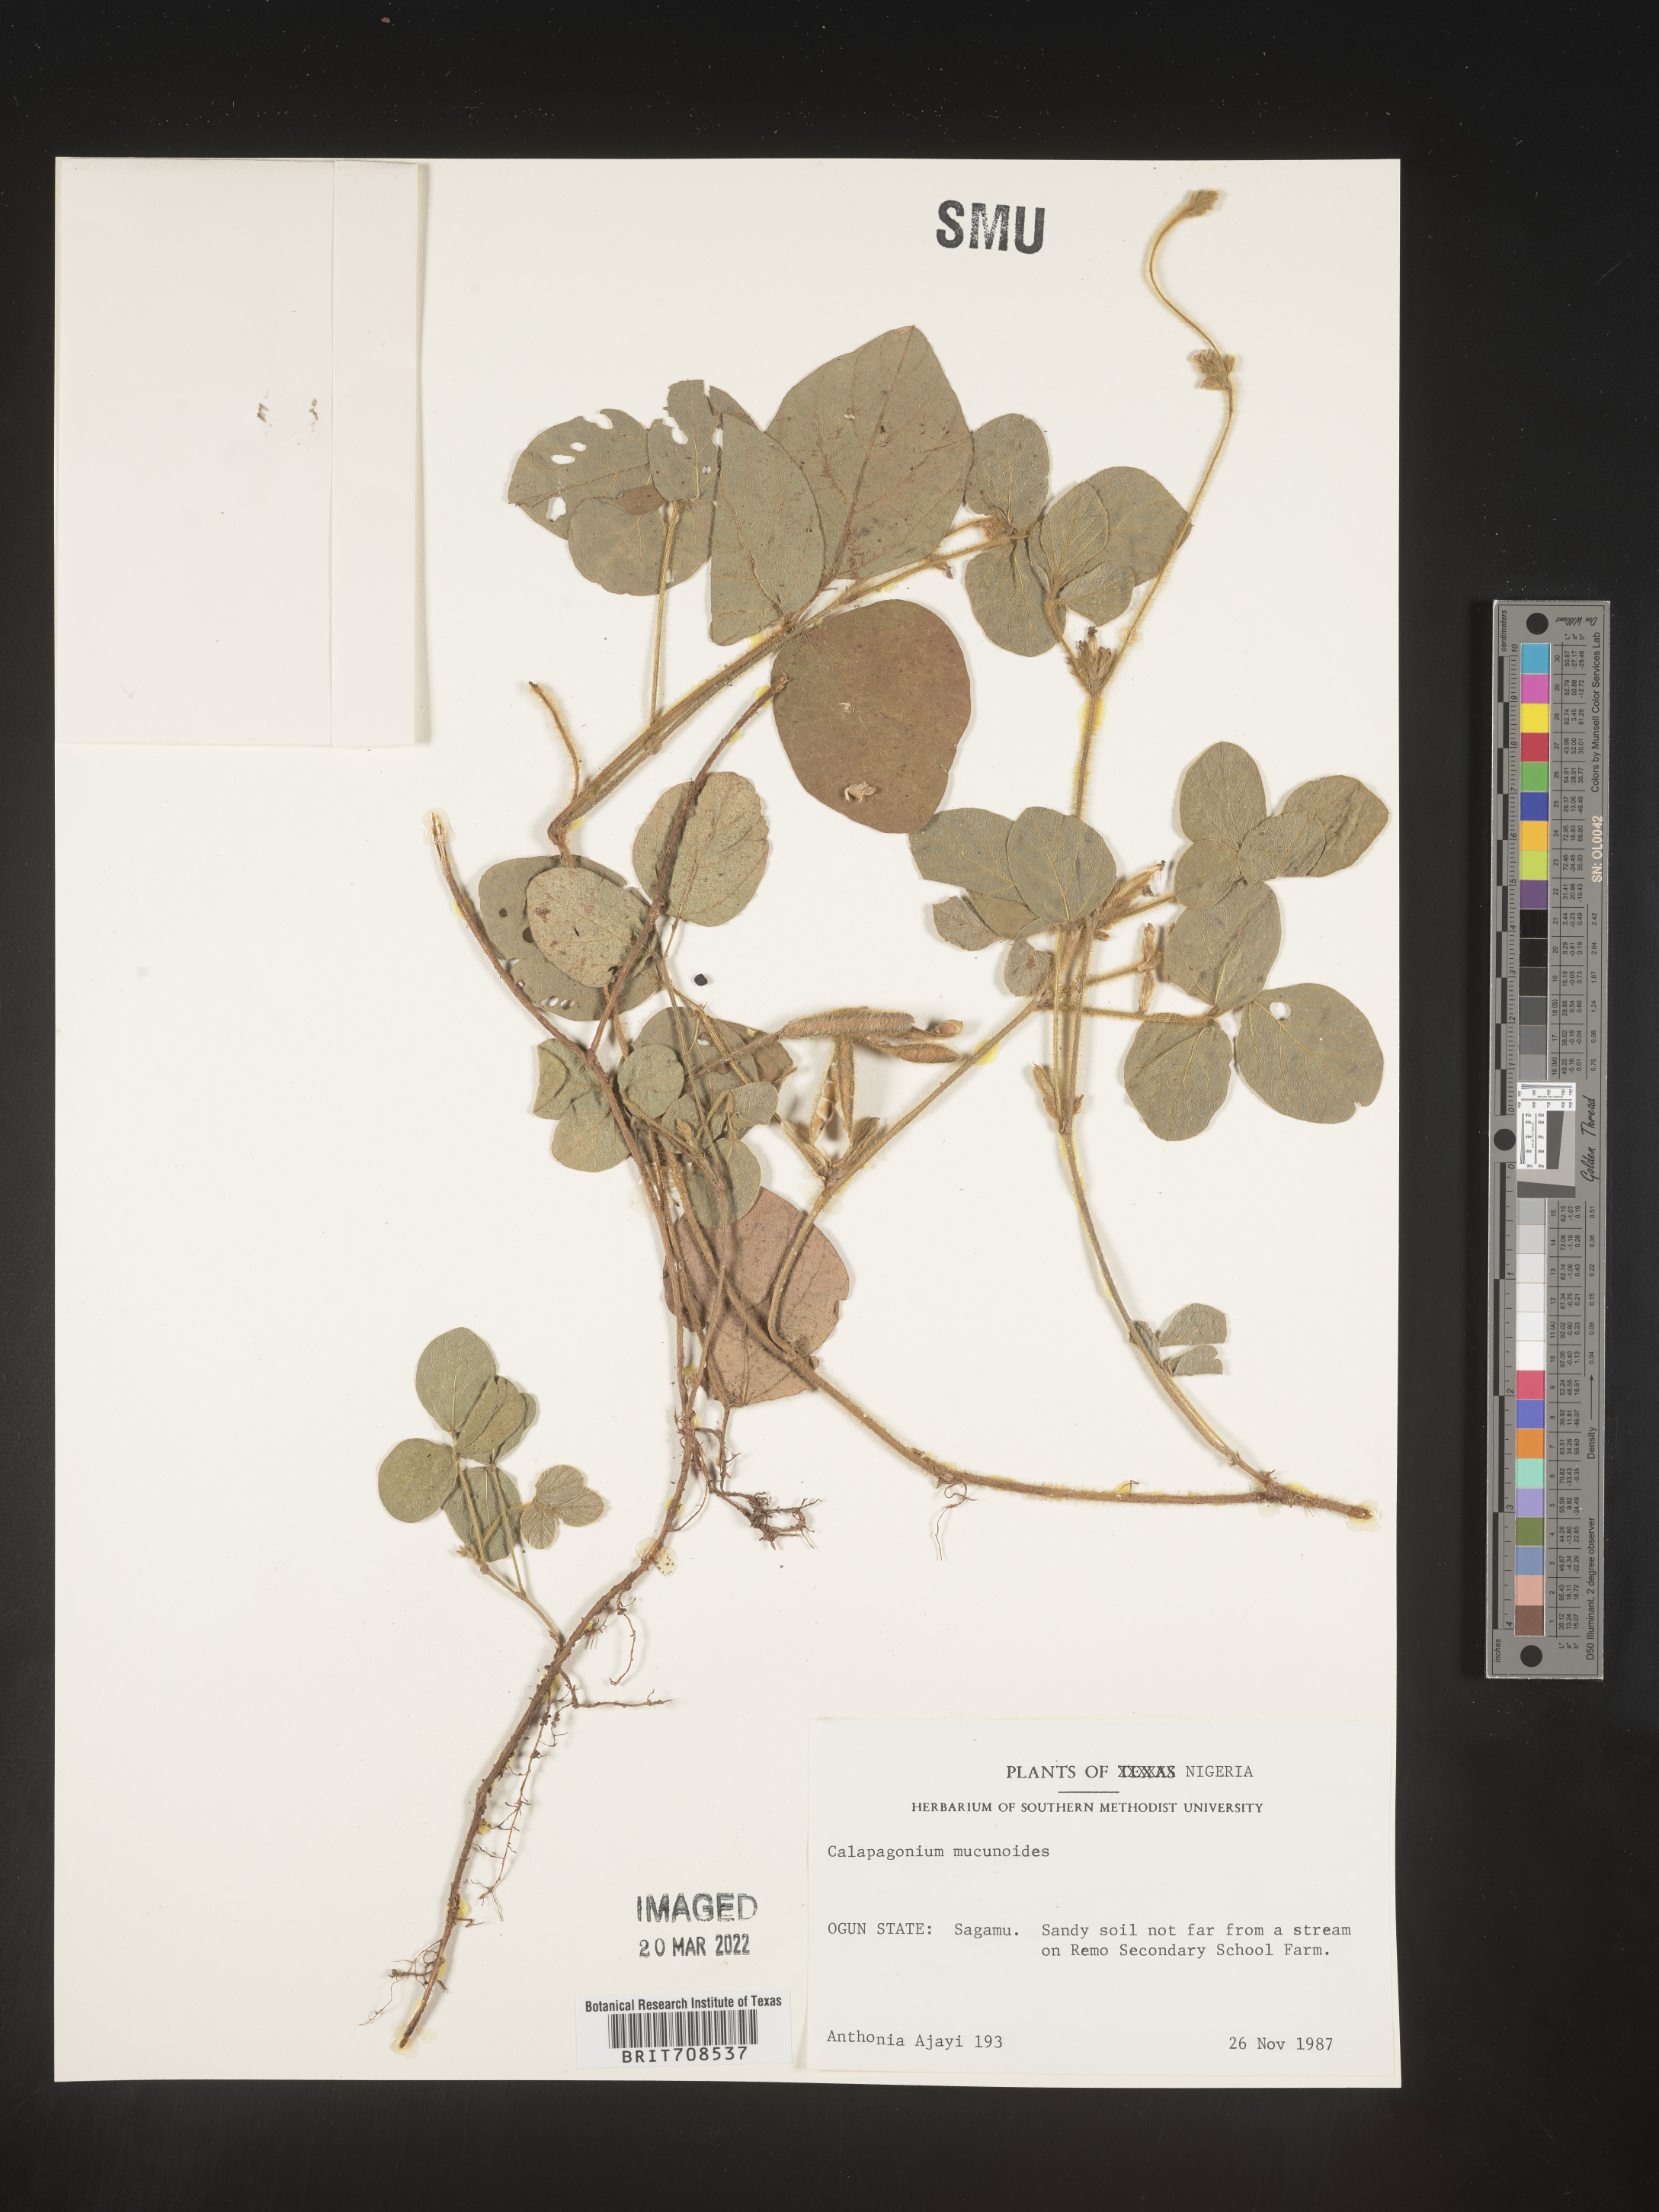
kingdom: Plantae
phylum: Tracheophyta
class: Magnoliopsida
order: Fabales
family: Fabaceae
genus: Calopogonium
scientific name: Calopogonium
